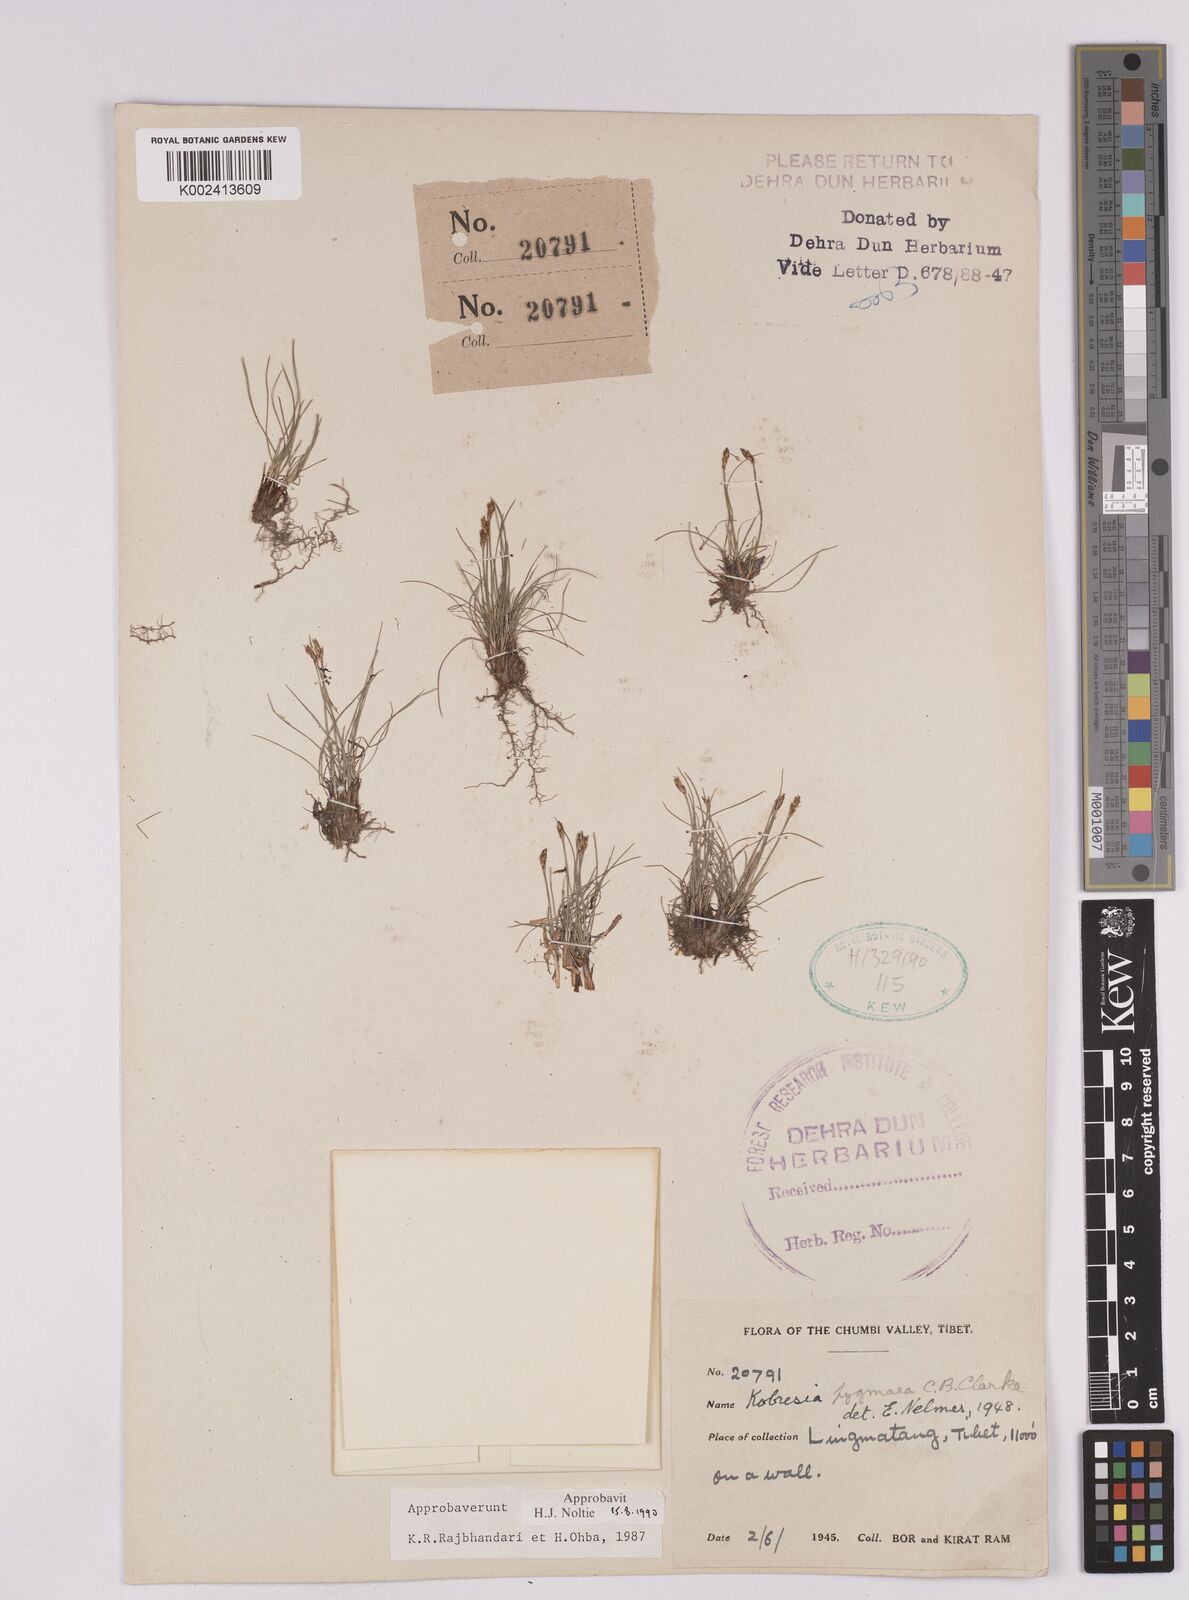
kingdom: Plantae
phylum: Tracheophyta
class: Liliopsida
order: Poales
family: Cyperaceae
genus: Carex
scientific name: Carex parvula
